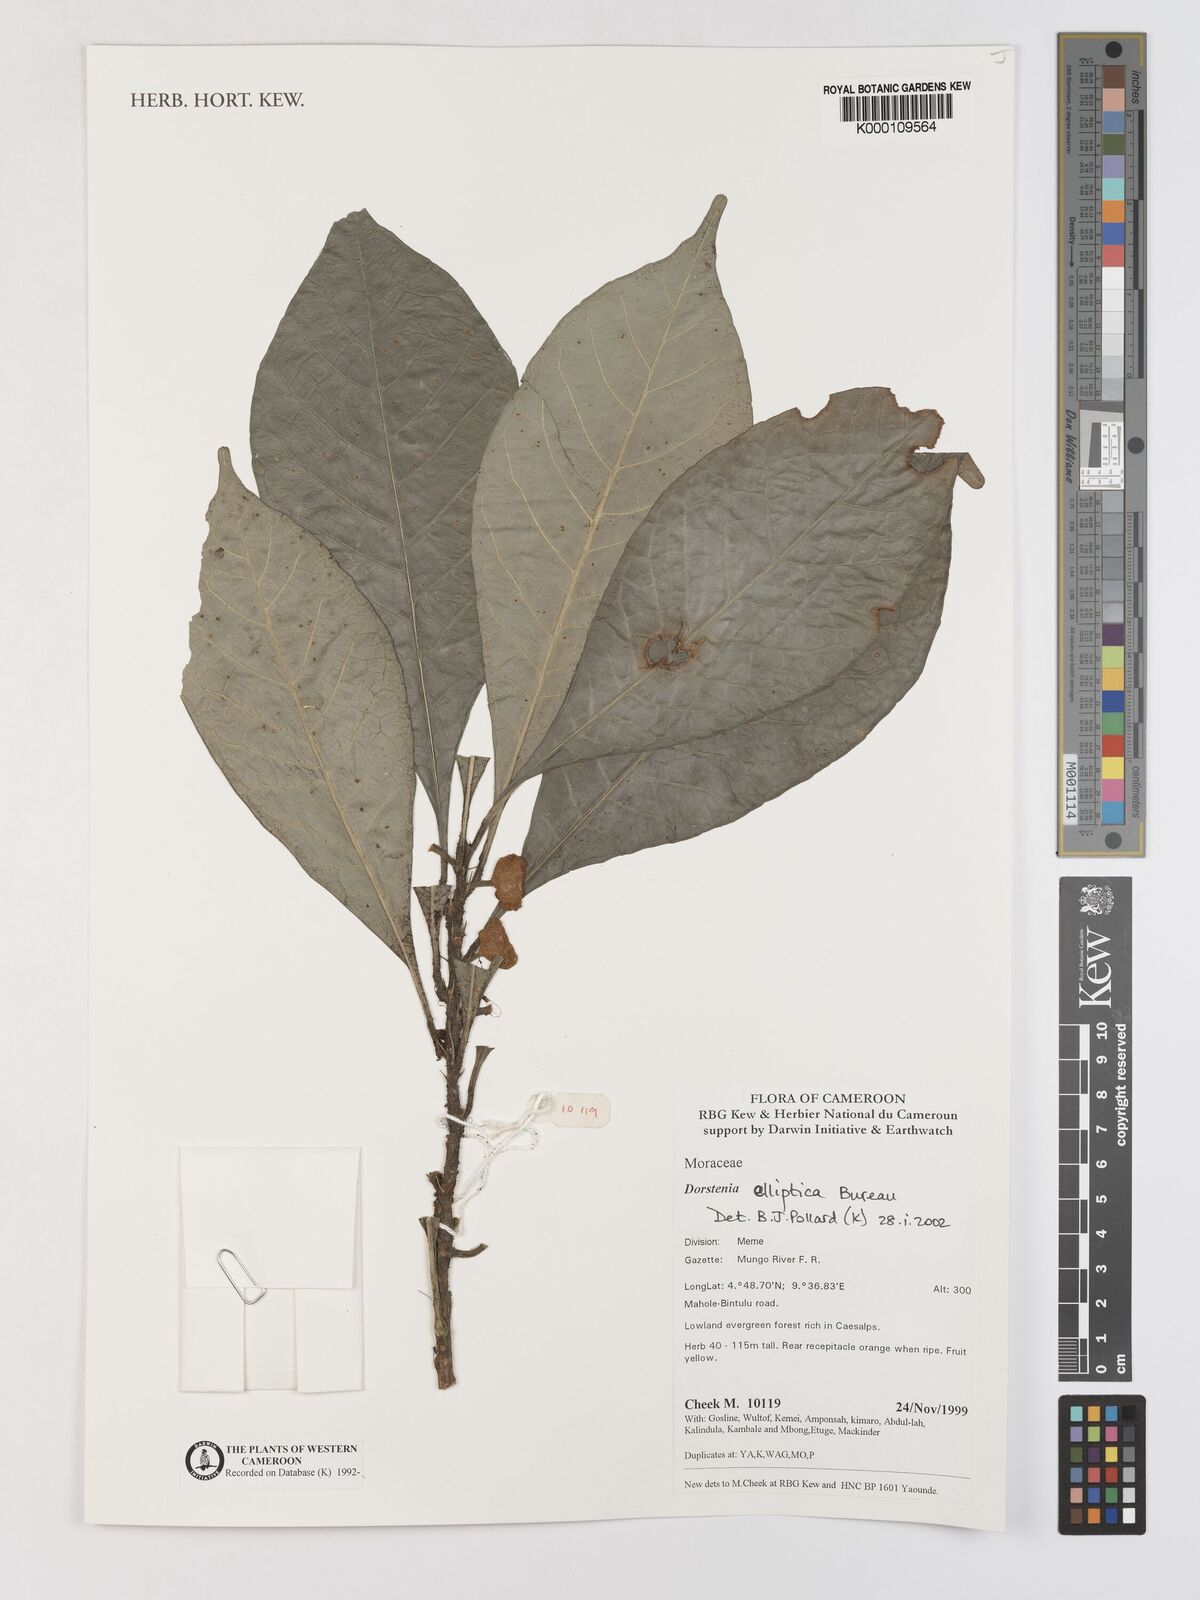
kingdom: Plantae
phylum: Tracheophyta
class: Magnoliopsida
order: Rosales
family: Moraceae
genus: Dorstenia
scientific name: Dorstenia elliptica
